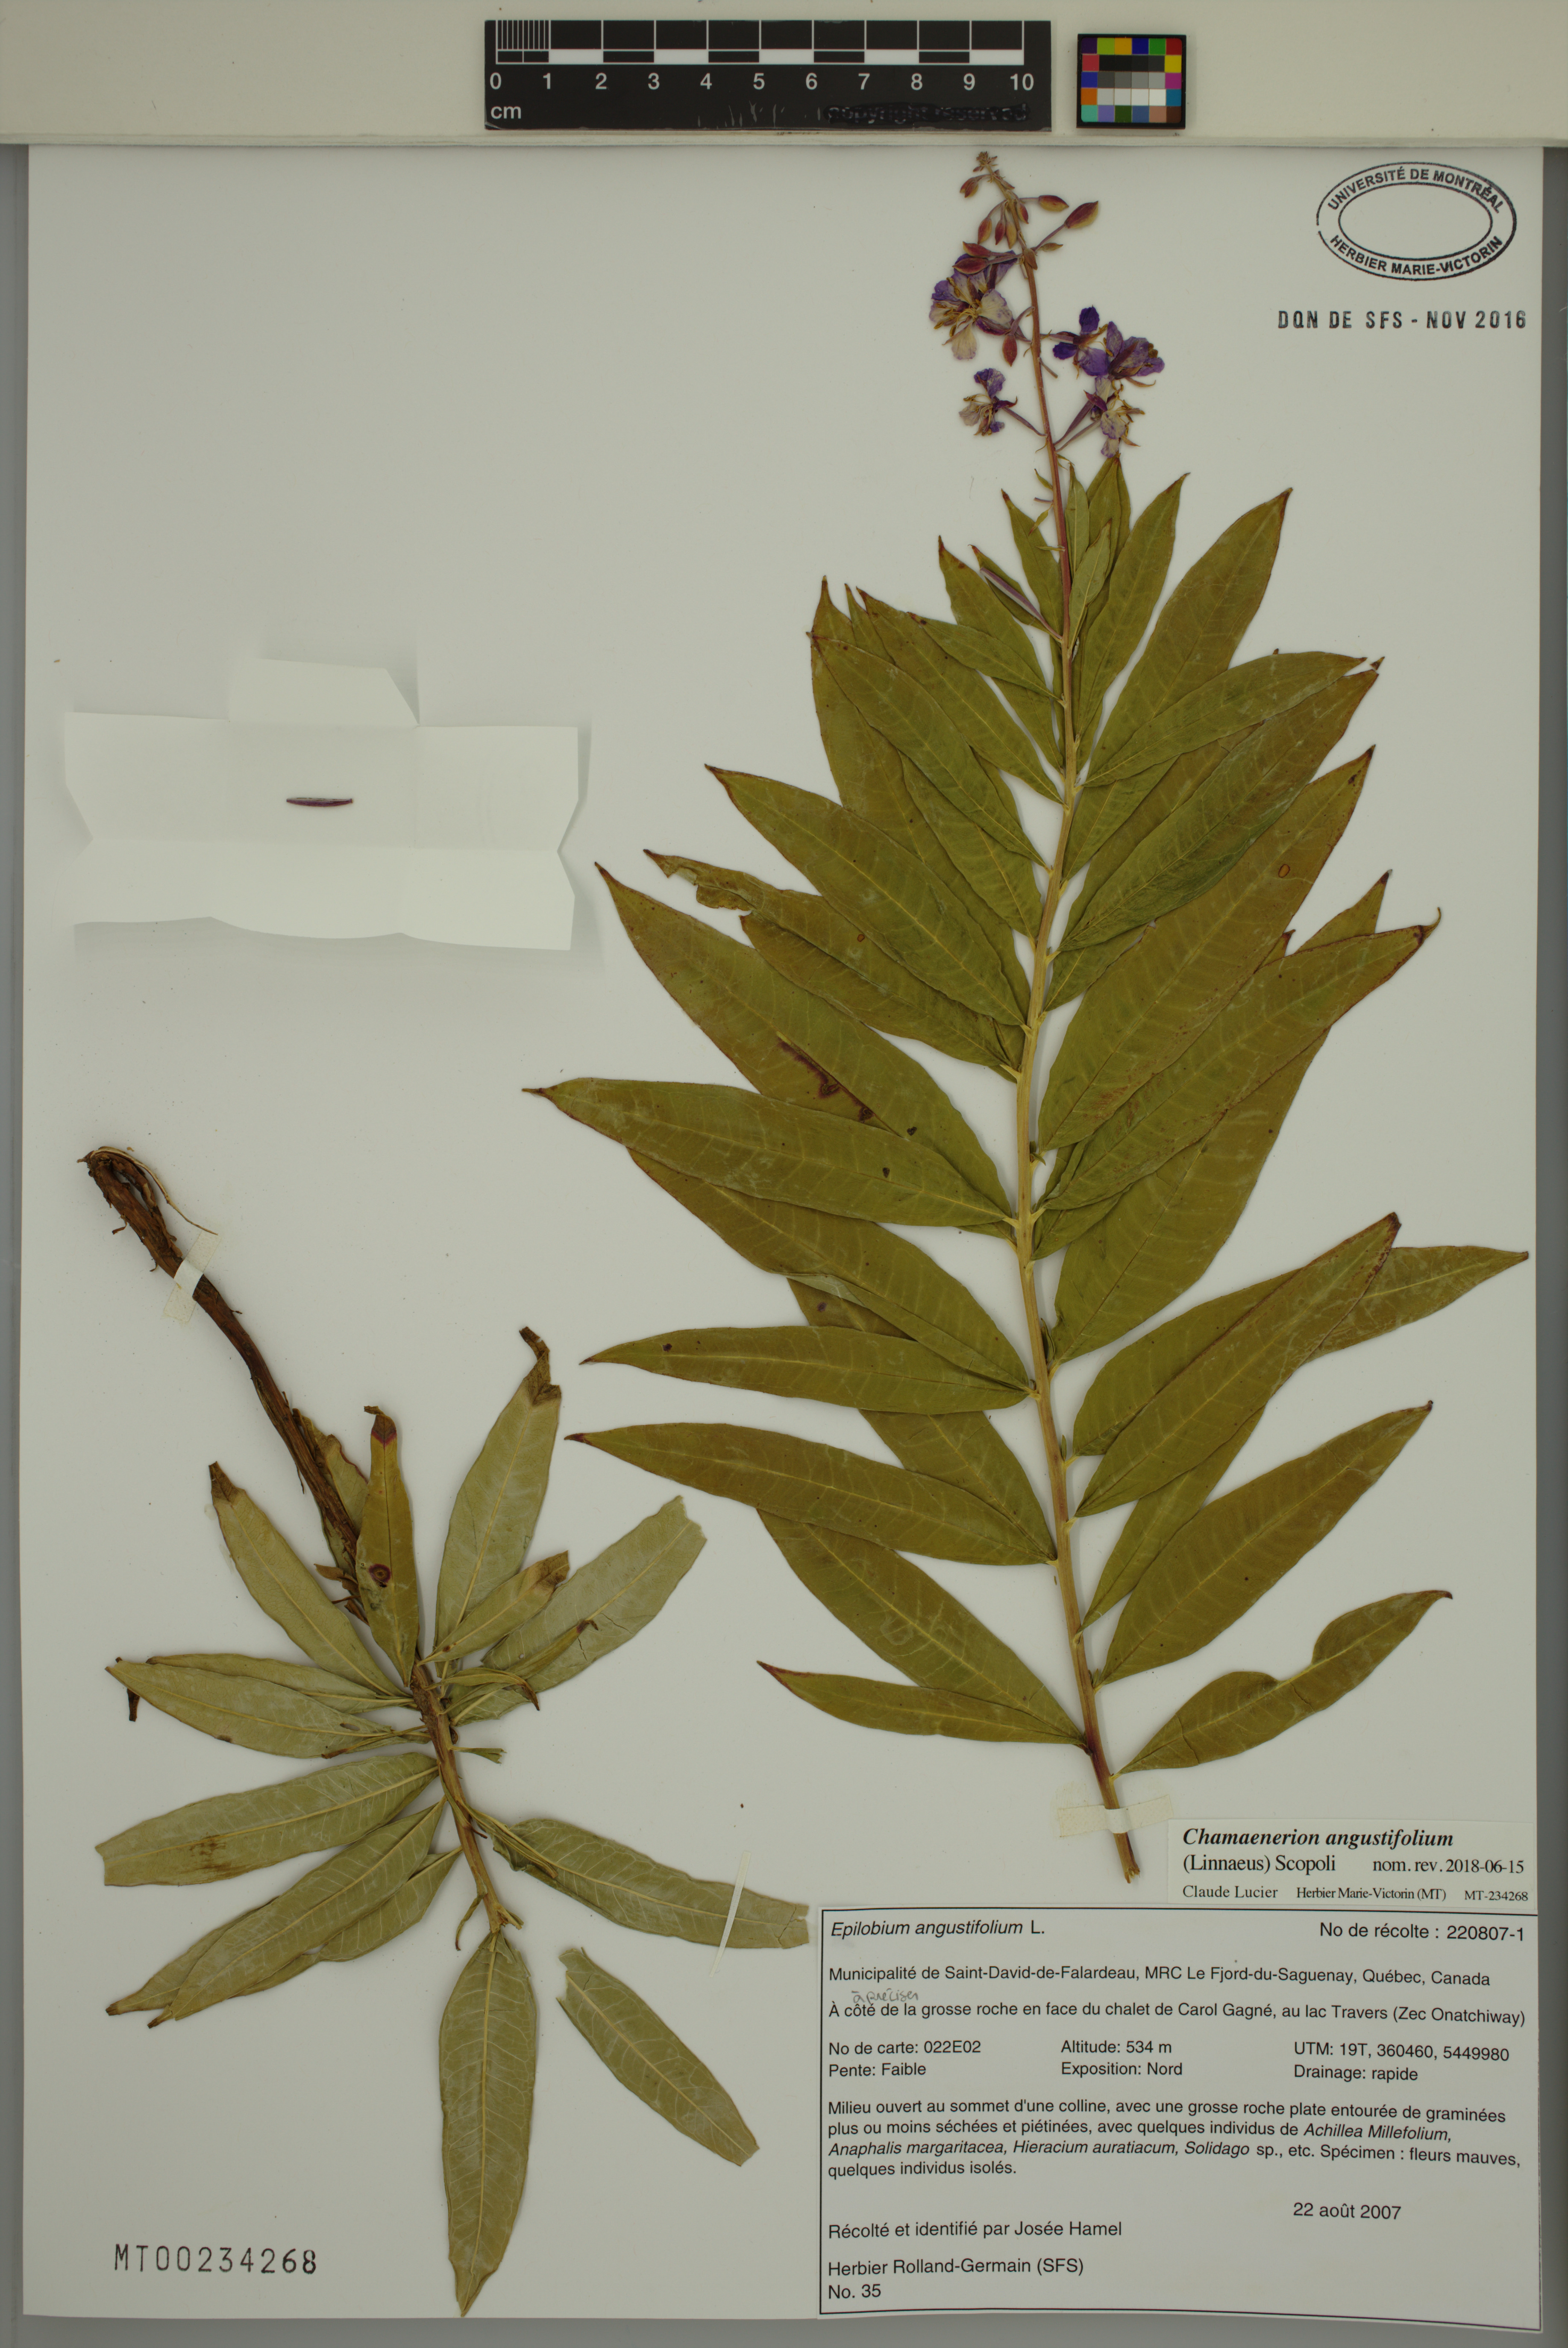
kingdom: Plantae
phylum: Tracheophyta
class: Magnoliopsida
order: Myrtales
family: Onagraceae
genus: Chamaenerion
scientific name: Chamaenerion angustifolium
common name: Fireweed
